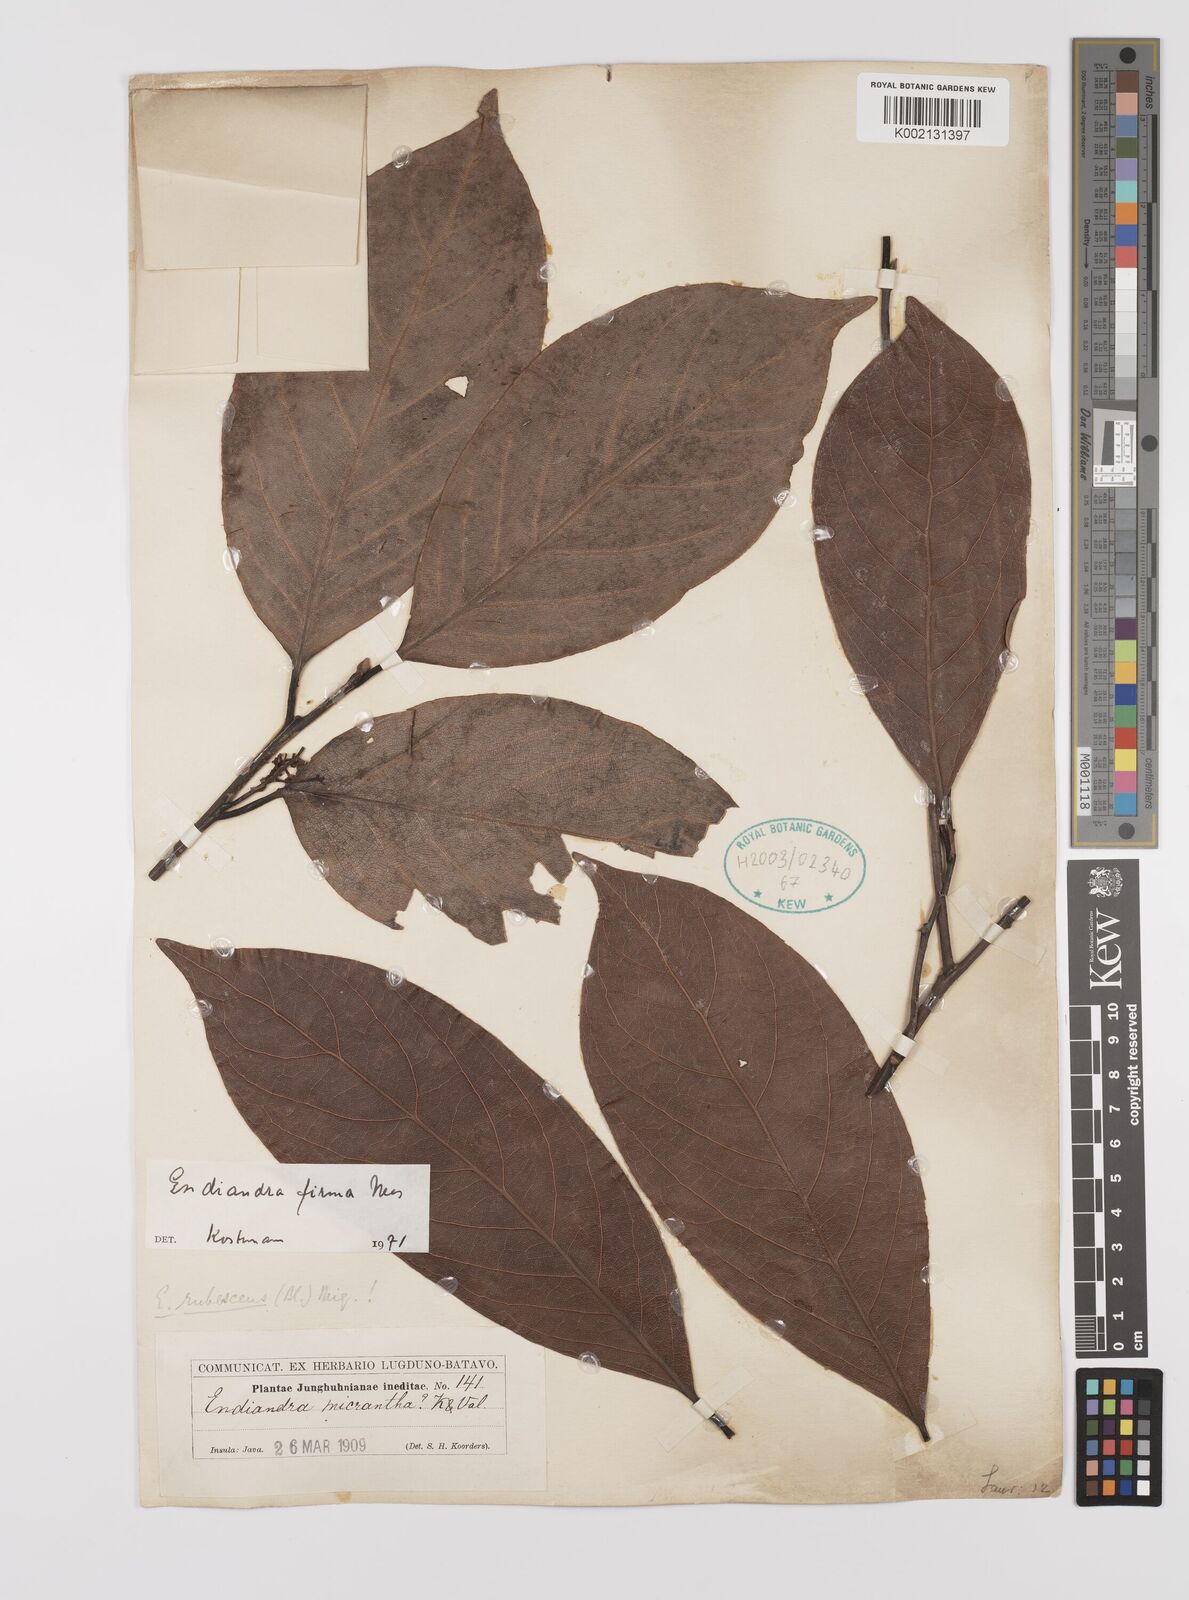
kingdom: Plantae
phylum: Tracheophyta
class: Magnoliopsida
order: Laurales
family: Lauraceae
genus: Endiandra
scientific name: Endiandra firma
